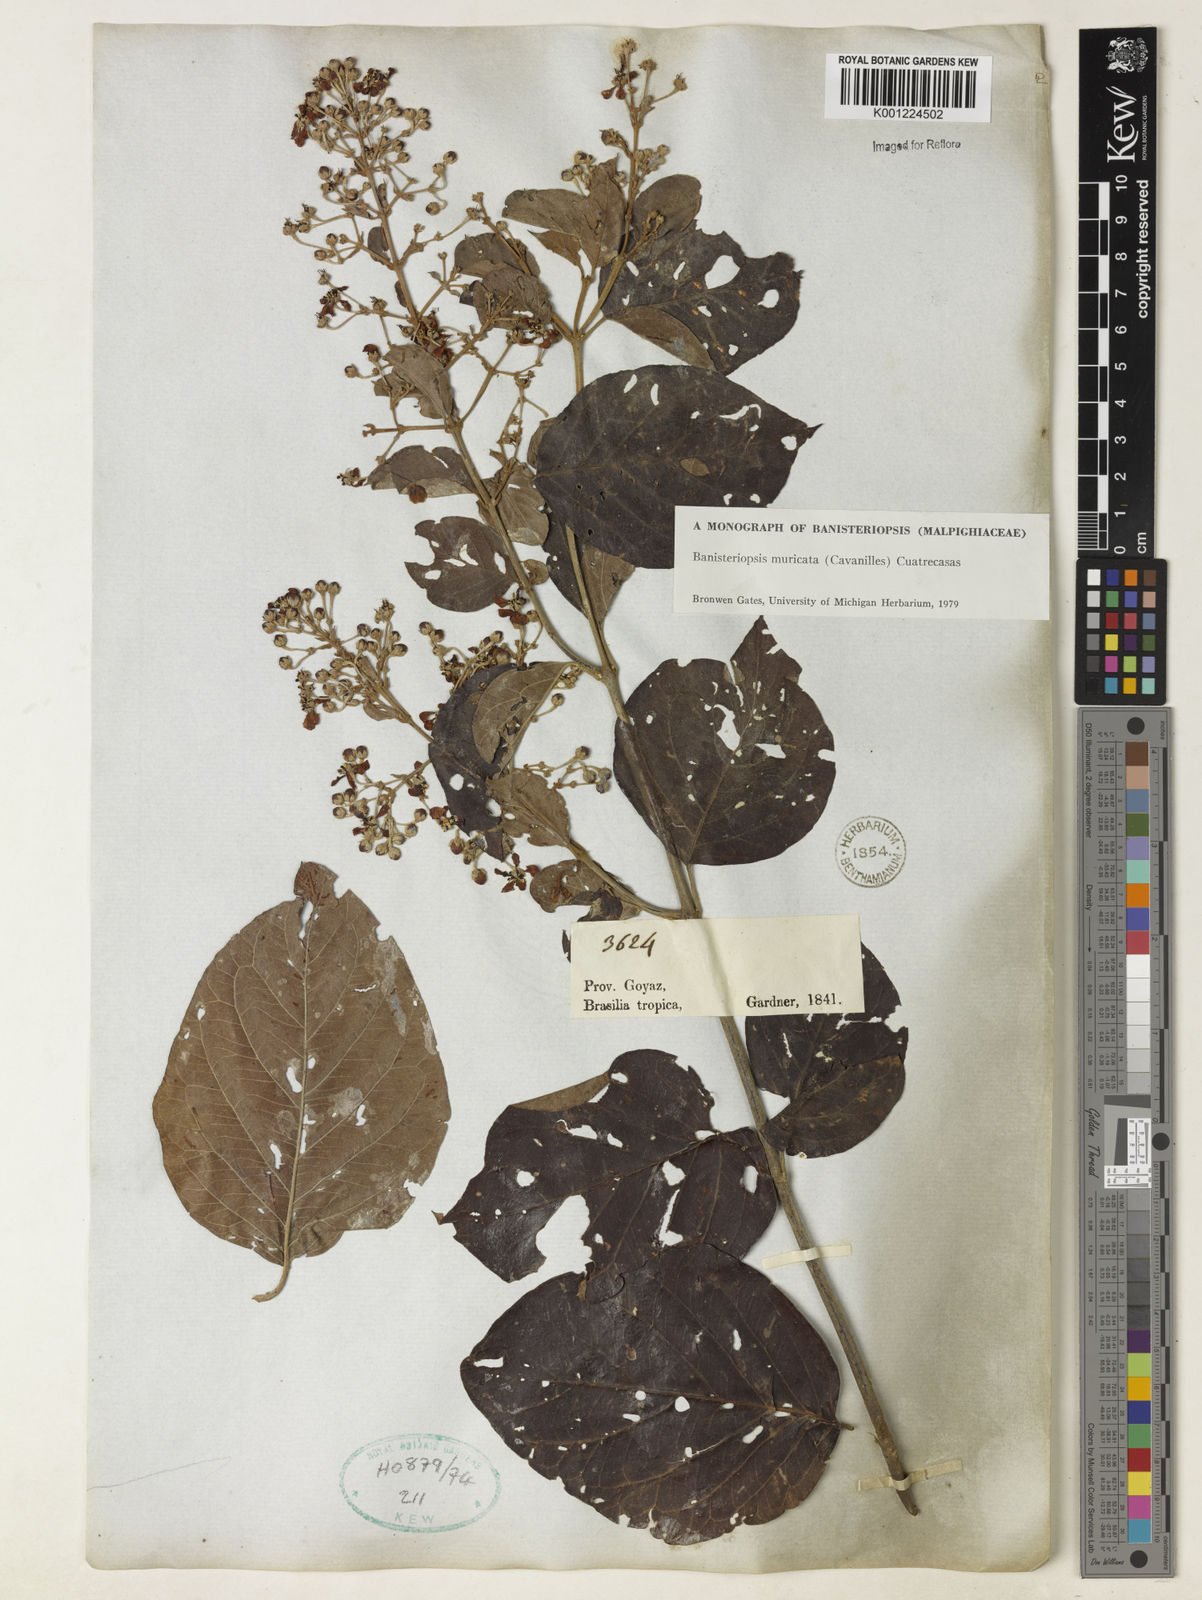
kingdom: Plantae
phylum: Tracheophyta
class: Magnoliopsida
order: Malpighiales
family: Malpighiaceae
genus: Banisteriopsis
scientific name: Banisteriopsis muricata
